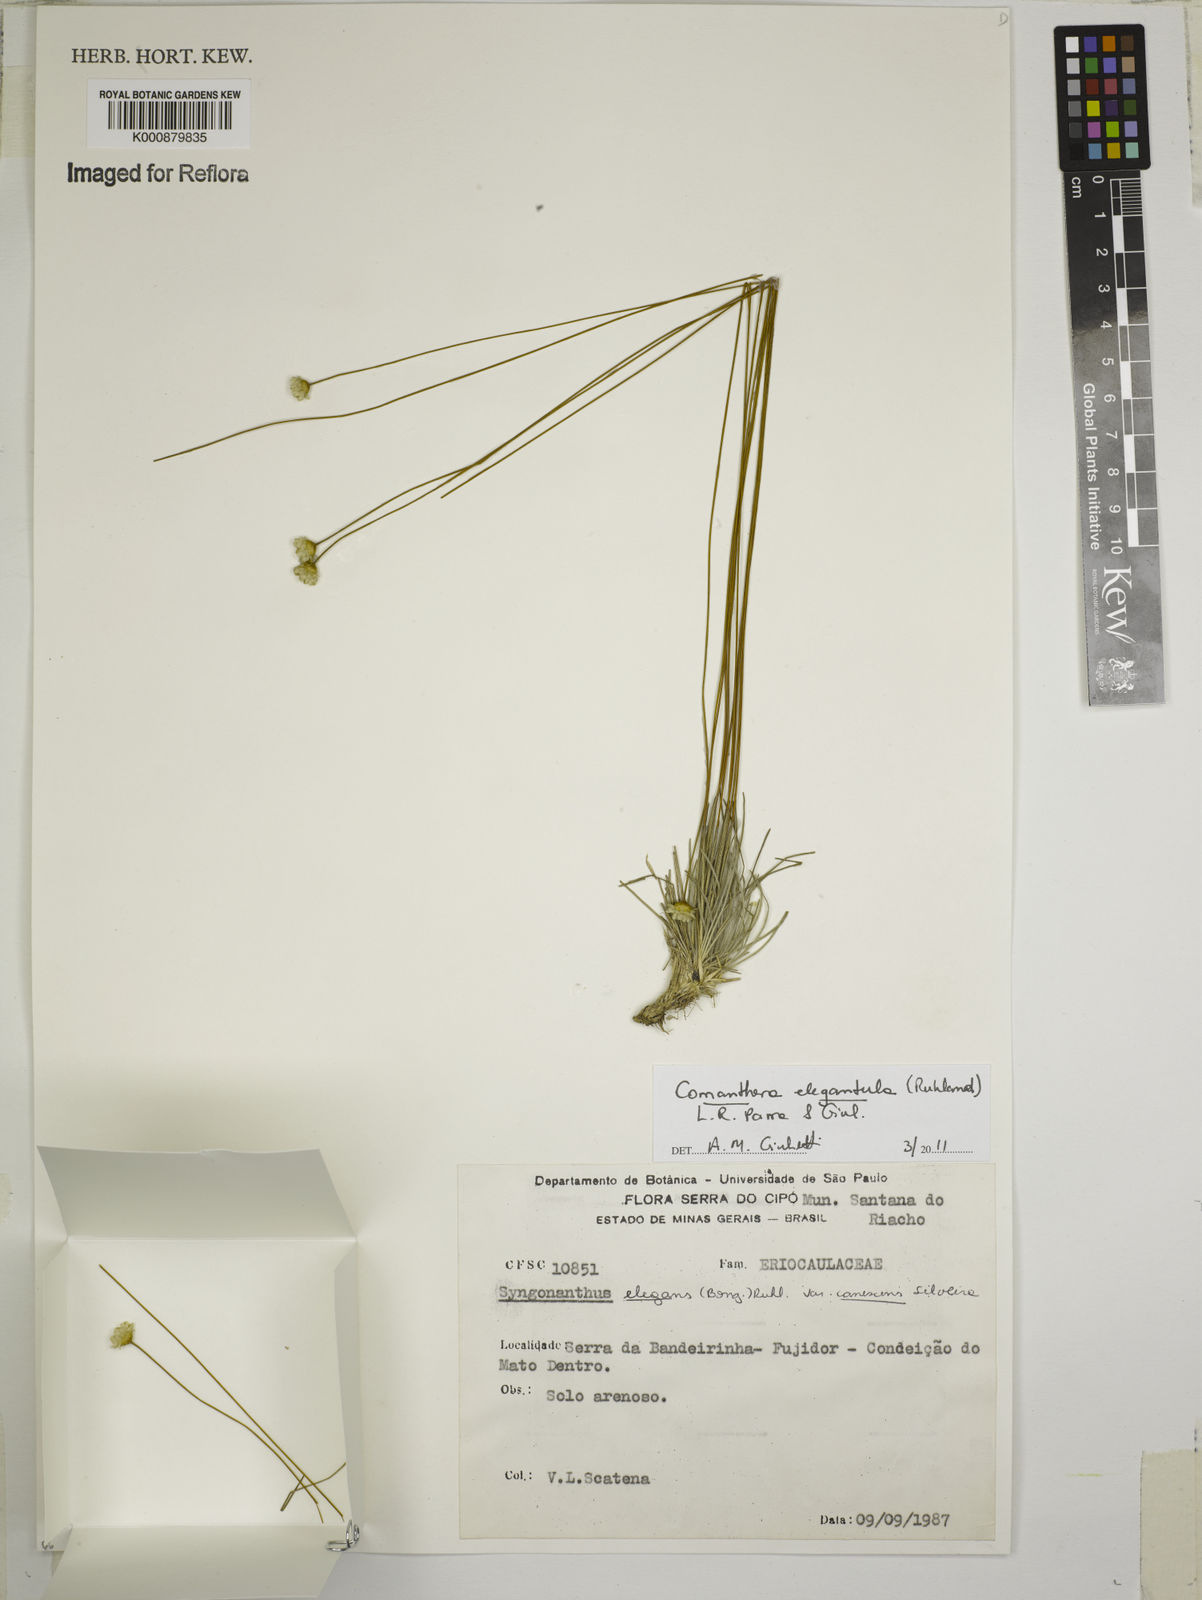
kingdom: Plantae
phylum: Tracheophyta
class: Liliopsida
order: Poales
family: Eriocaulaceae
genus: Comanthera
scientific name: Comanthera elegans
